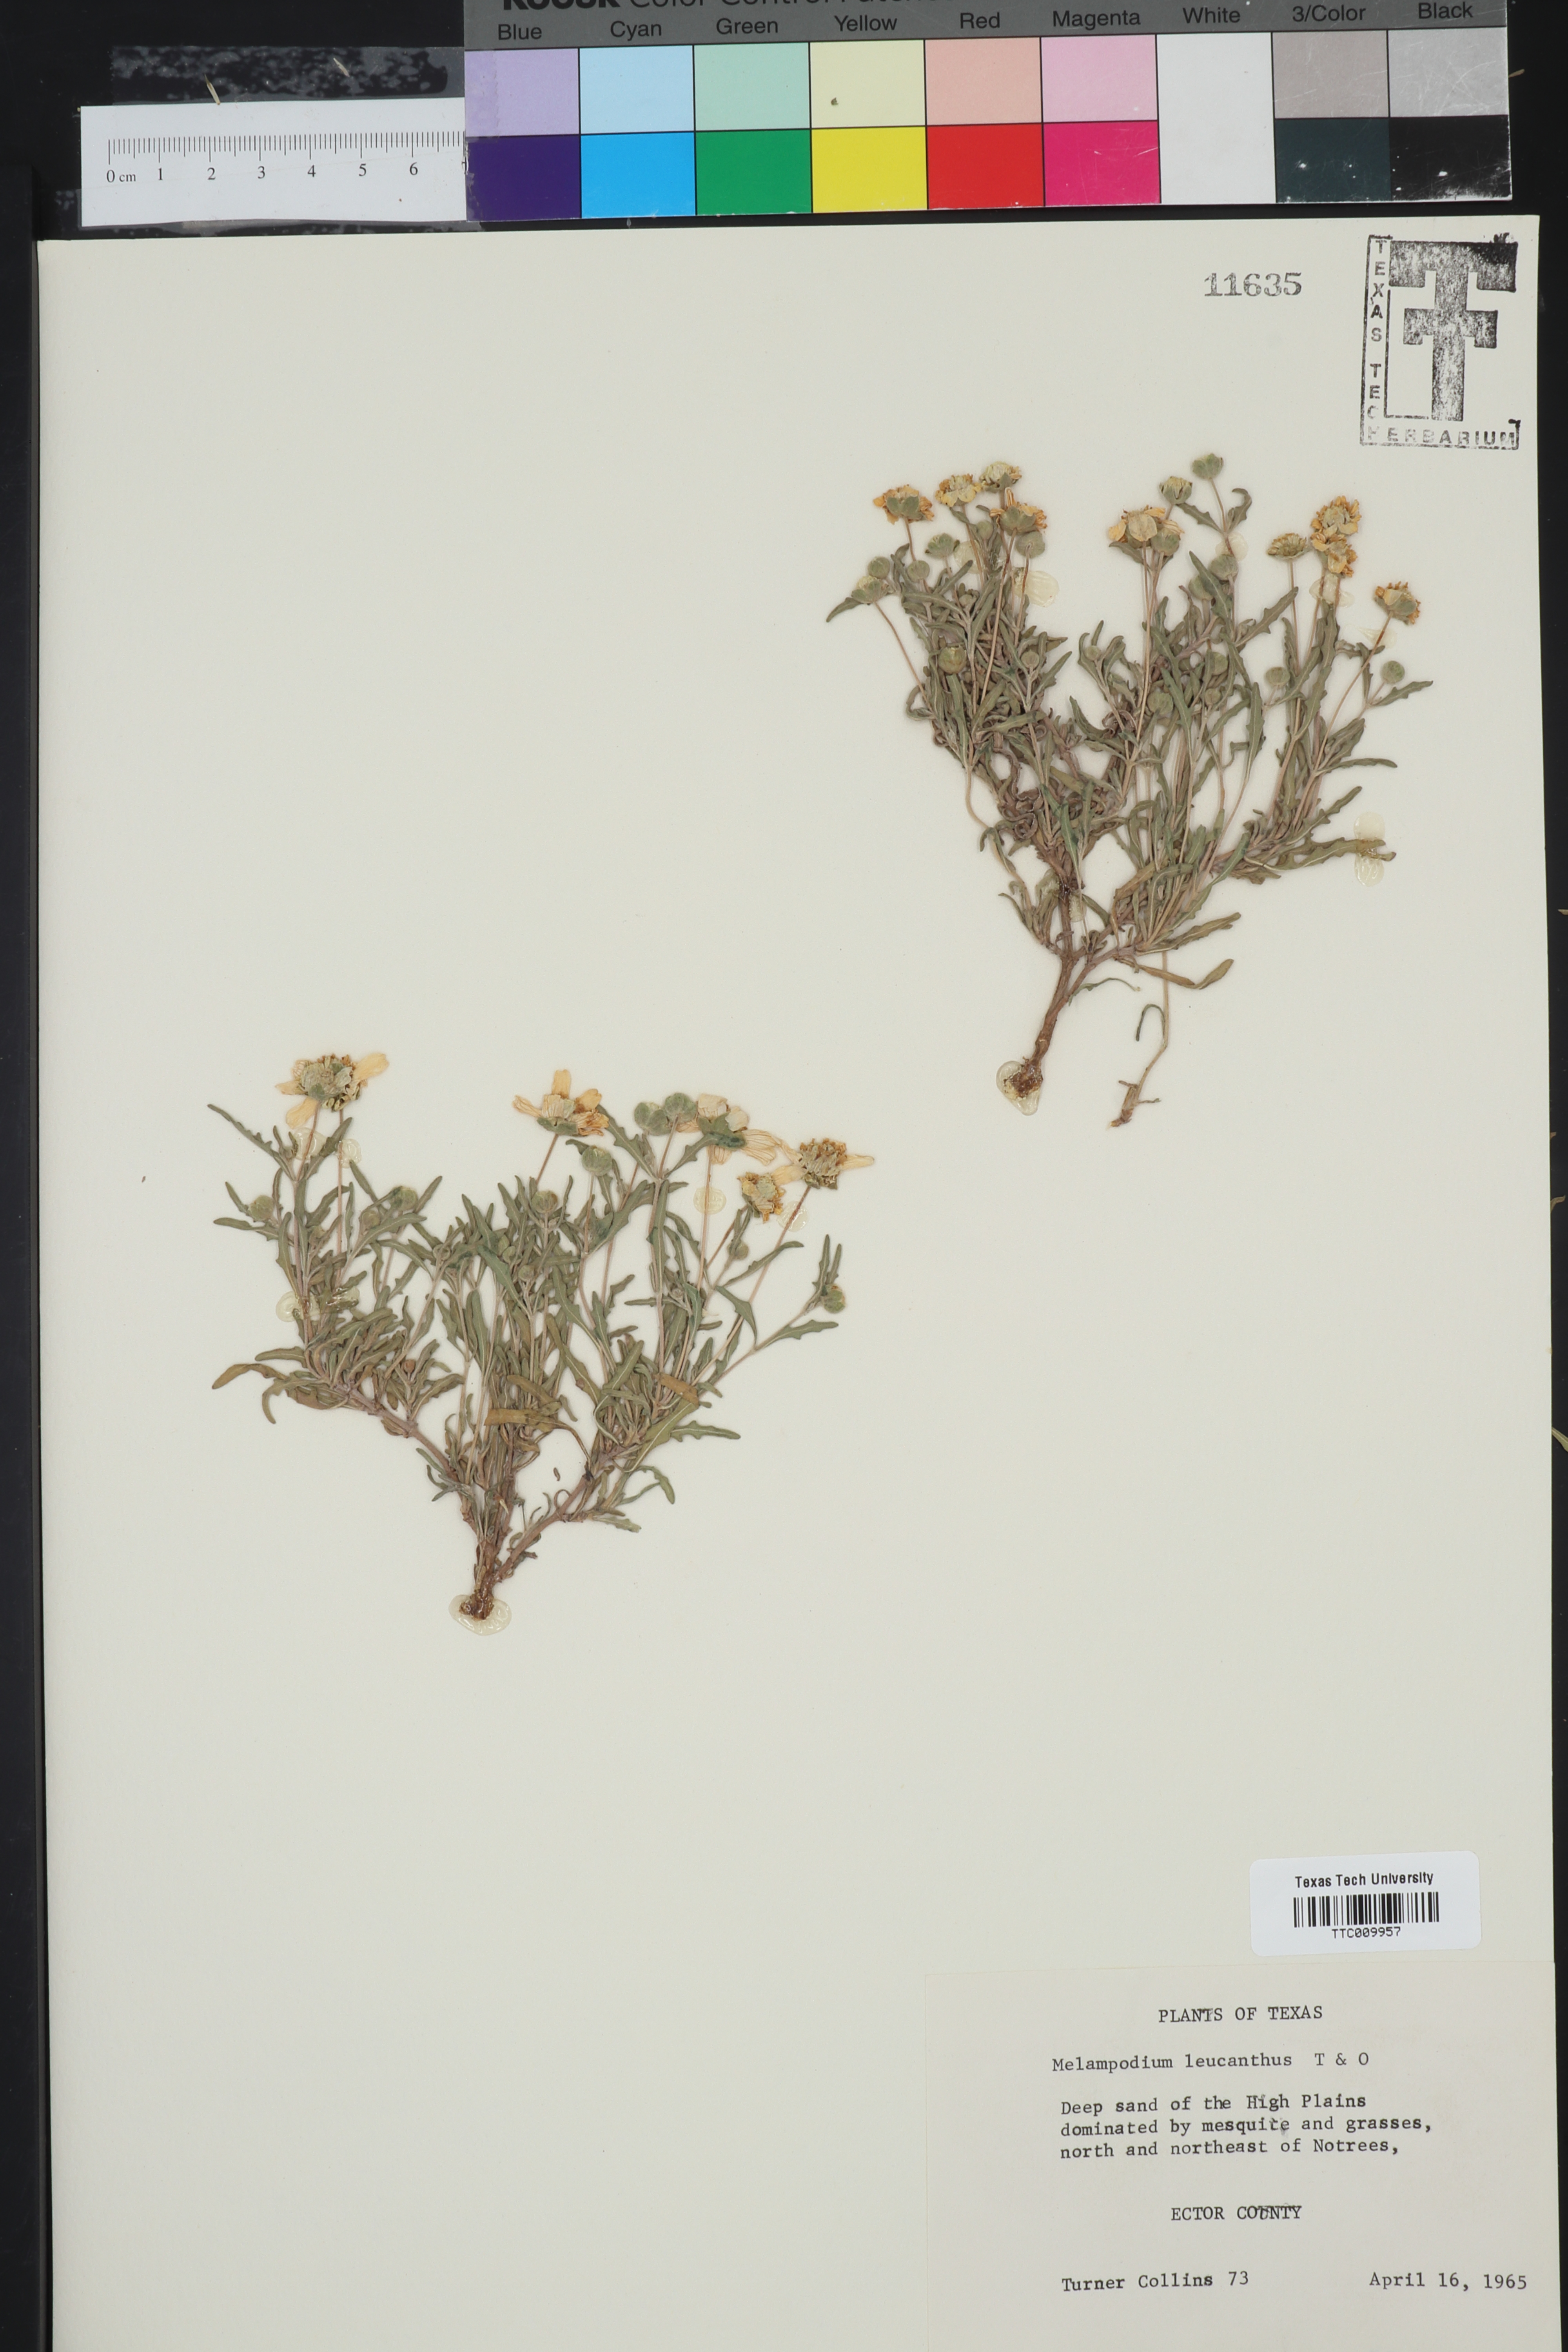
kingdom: Plantae
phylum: Tracheophyta
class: Magnoliopsida
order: Asterales
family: Asteraceae
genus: Melampodium
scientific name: Melampodium leucanthum
